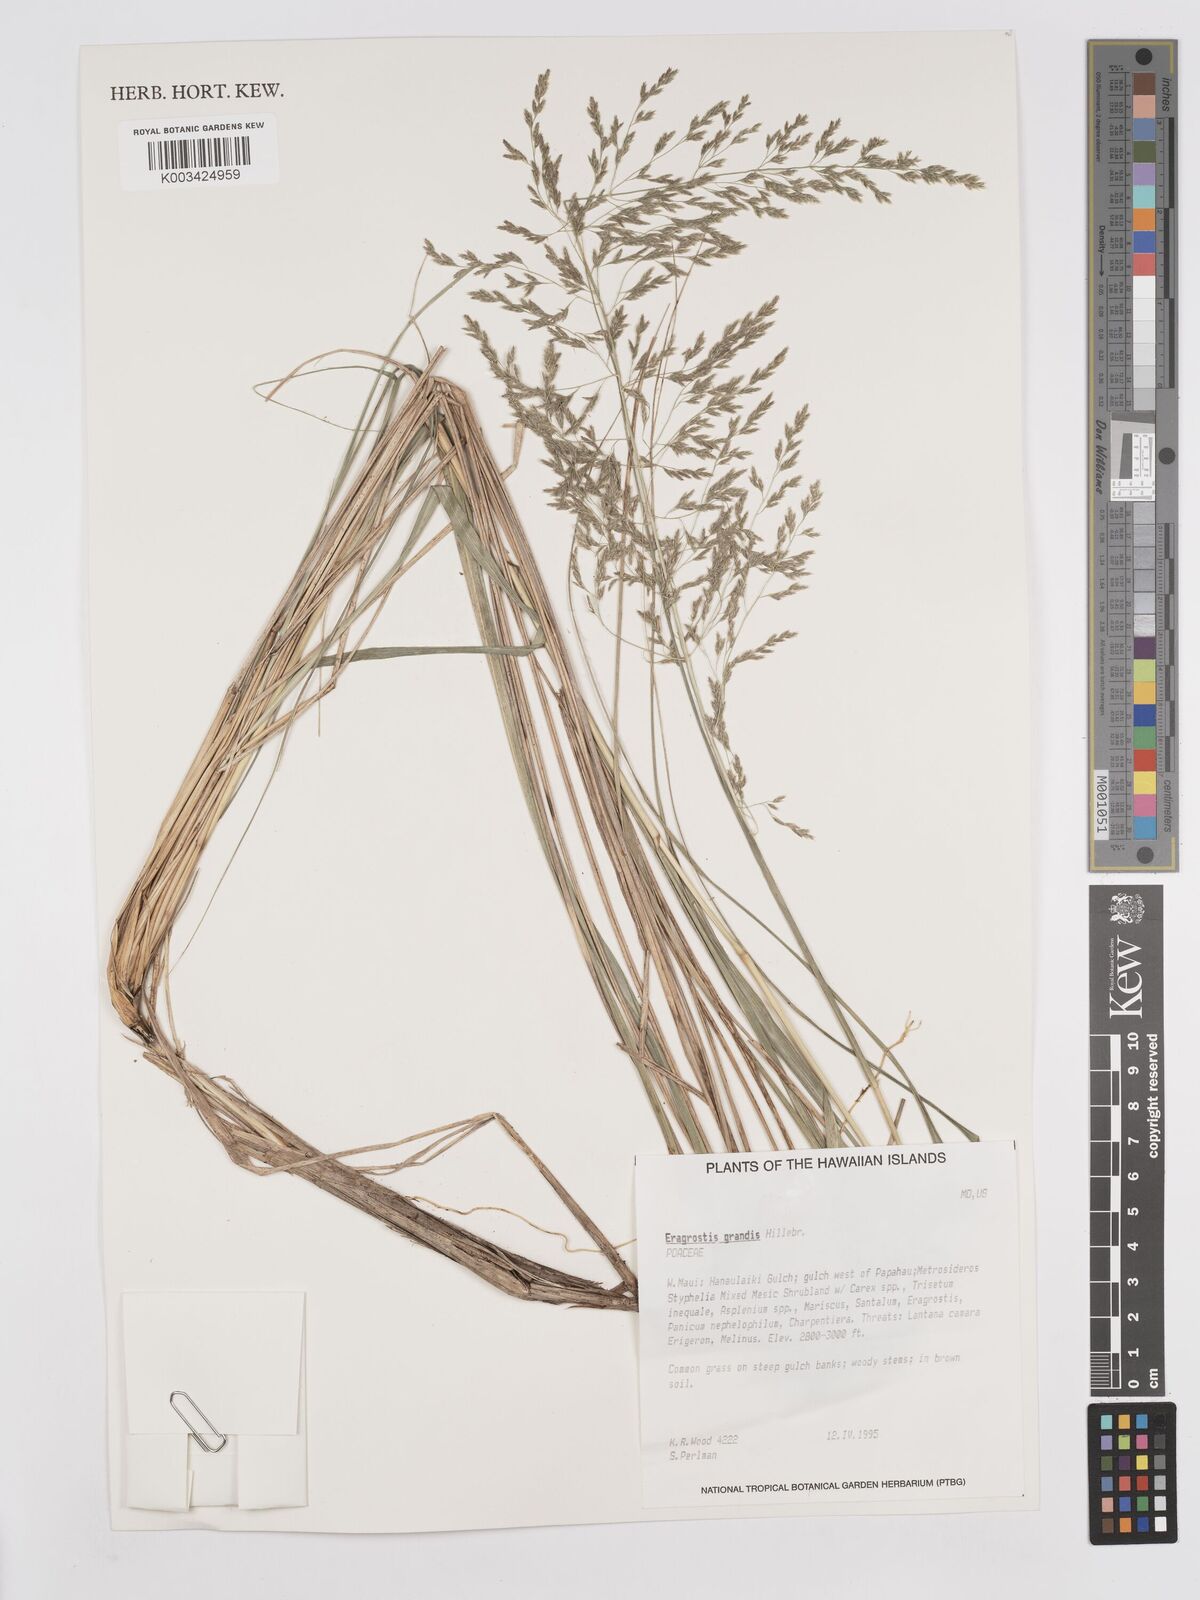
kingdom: Plantae
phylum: Tracheophyta
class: Liliopsida
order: Poales
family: Poaceae
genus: Eragrostis
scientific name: Eragrostis grandis
